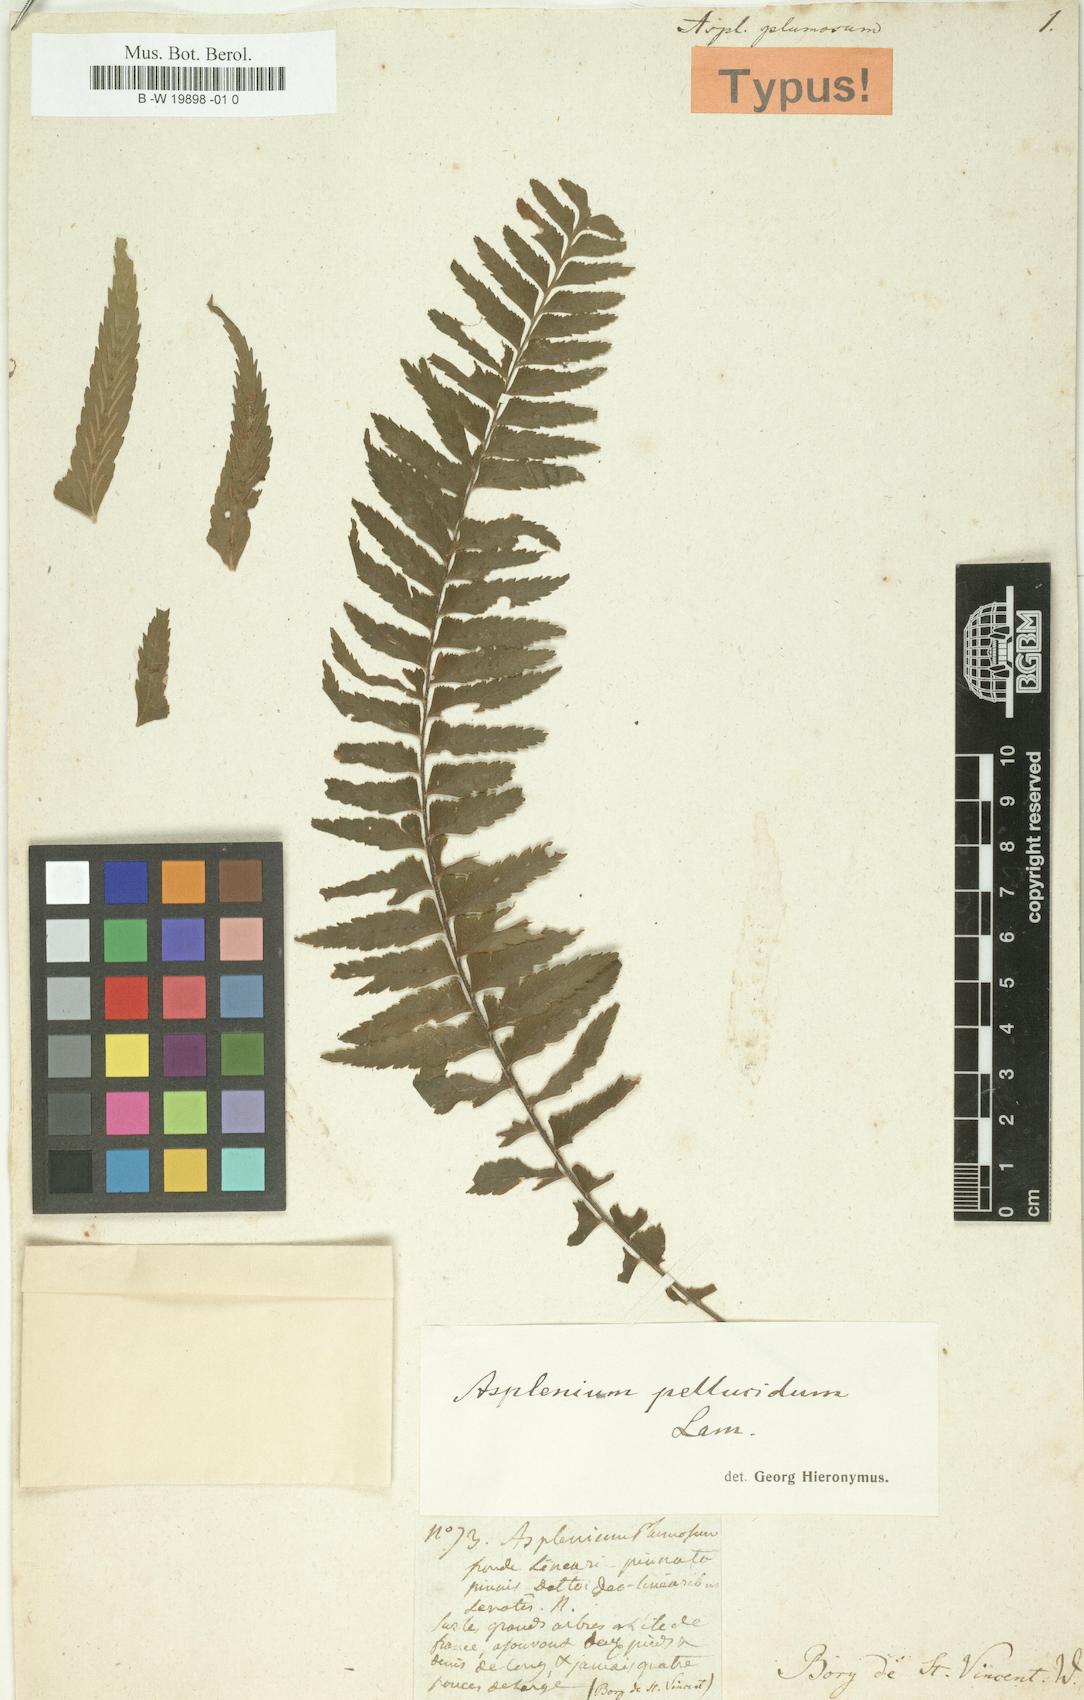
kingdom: Plantae
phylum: Tracheophyta
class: Polypodiopsida
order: Polypodiales
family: Aspleniaceae
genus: Asplenium
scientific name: Asplenium pellucidum
